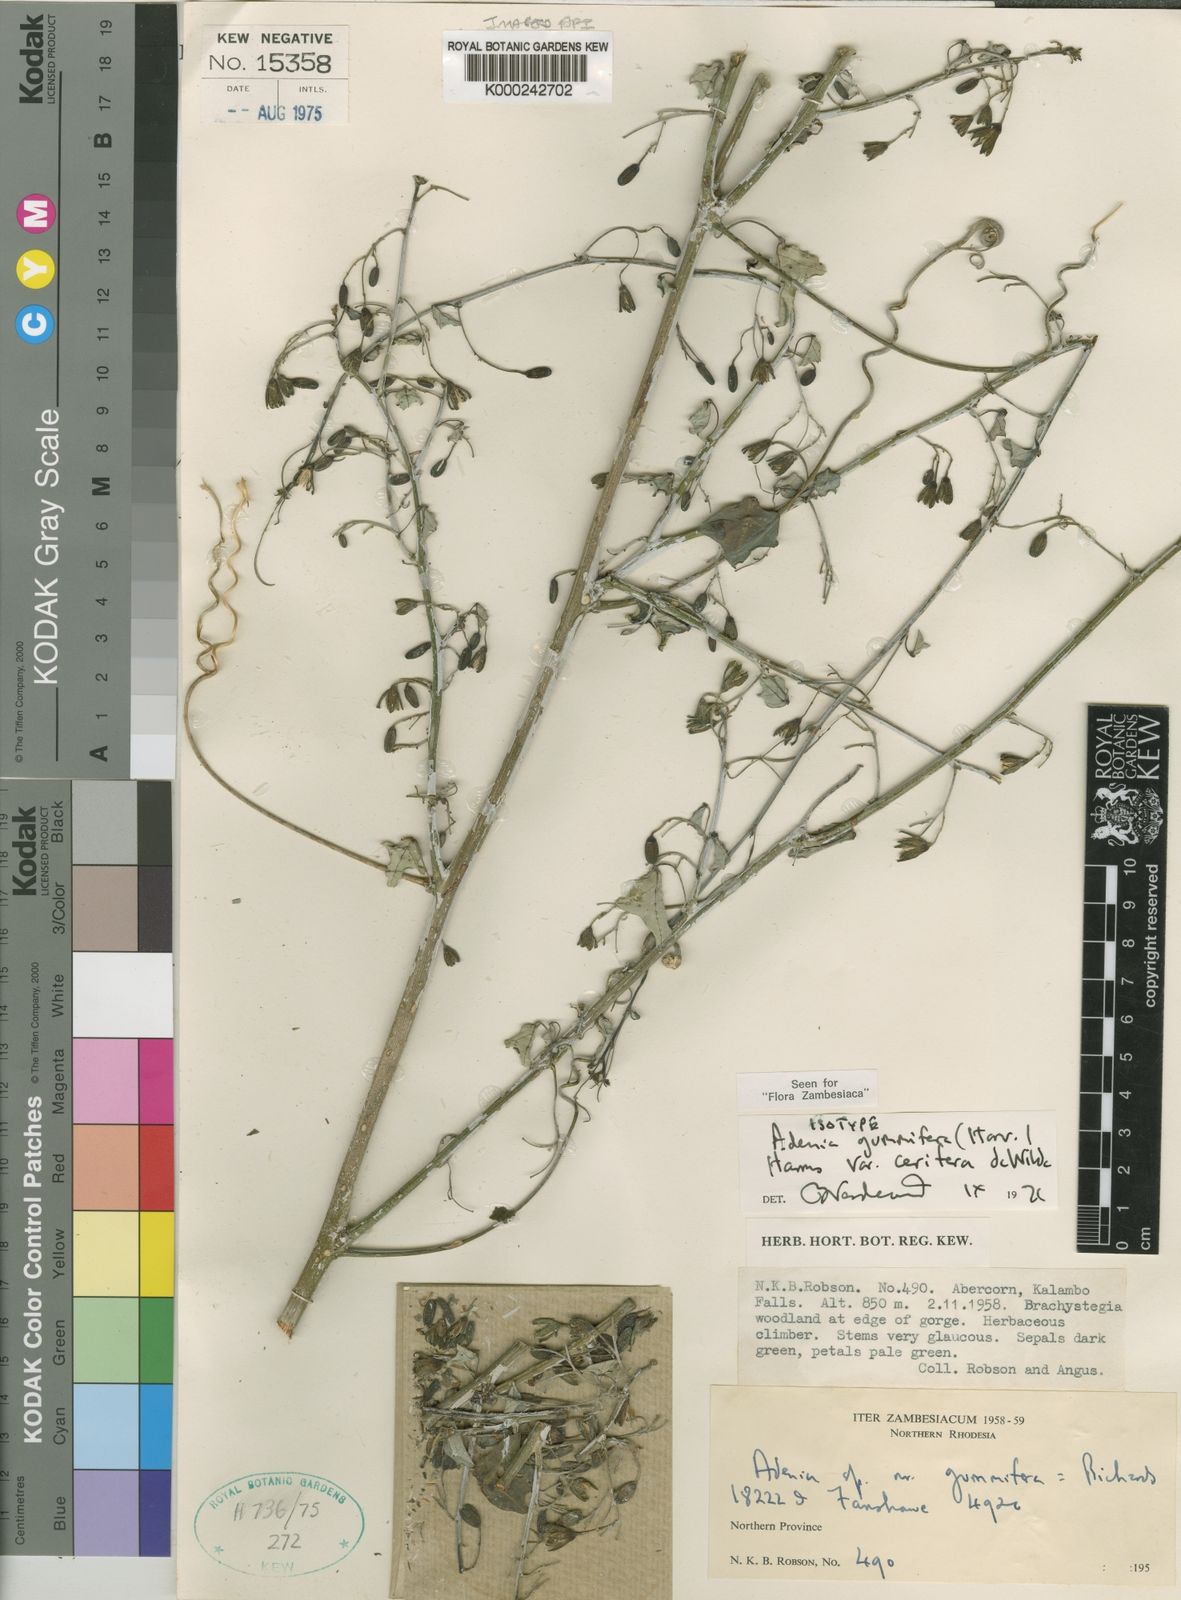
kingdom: Plantae
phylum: Tracheophyta
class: Magnoliopsida
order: Malpighiales
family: Passifloraceae
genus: Adenia
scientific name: Adenia cissampeloides
